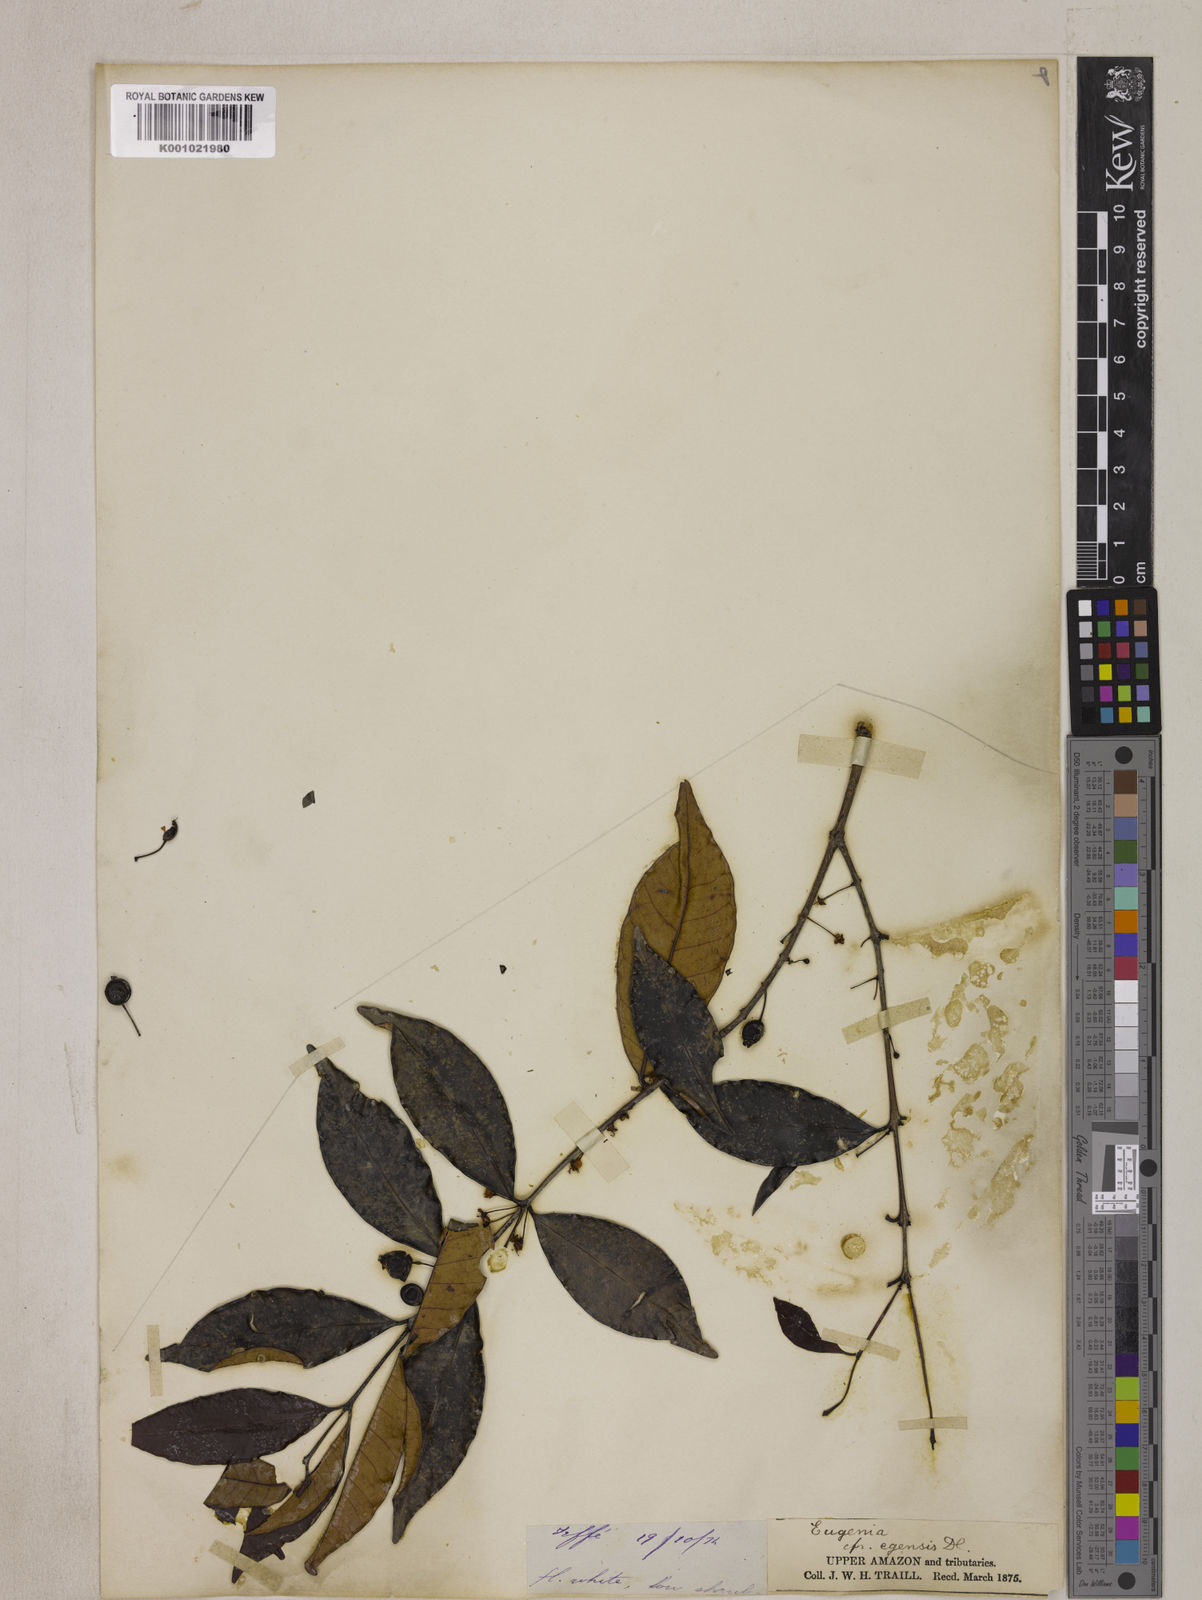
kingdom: Plantae
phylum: Tracheophyta
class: Magnoliopsida
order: Myrtales
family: Myrtaceae
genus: Eugenia
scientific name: Eugenia egensis
